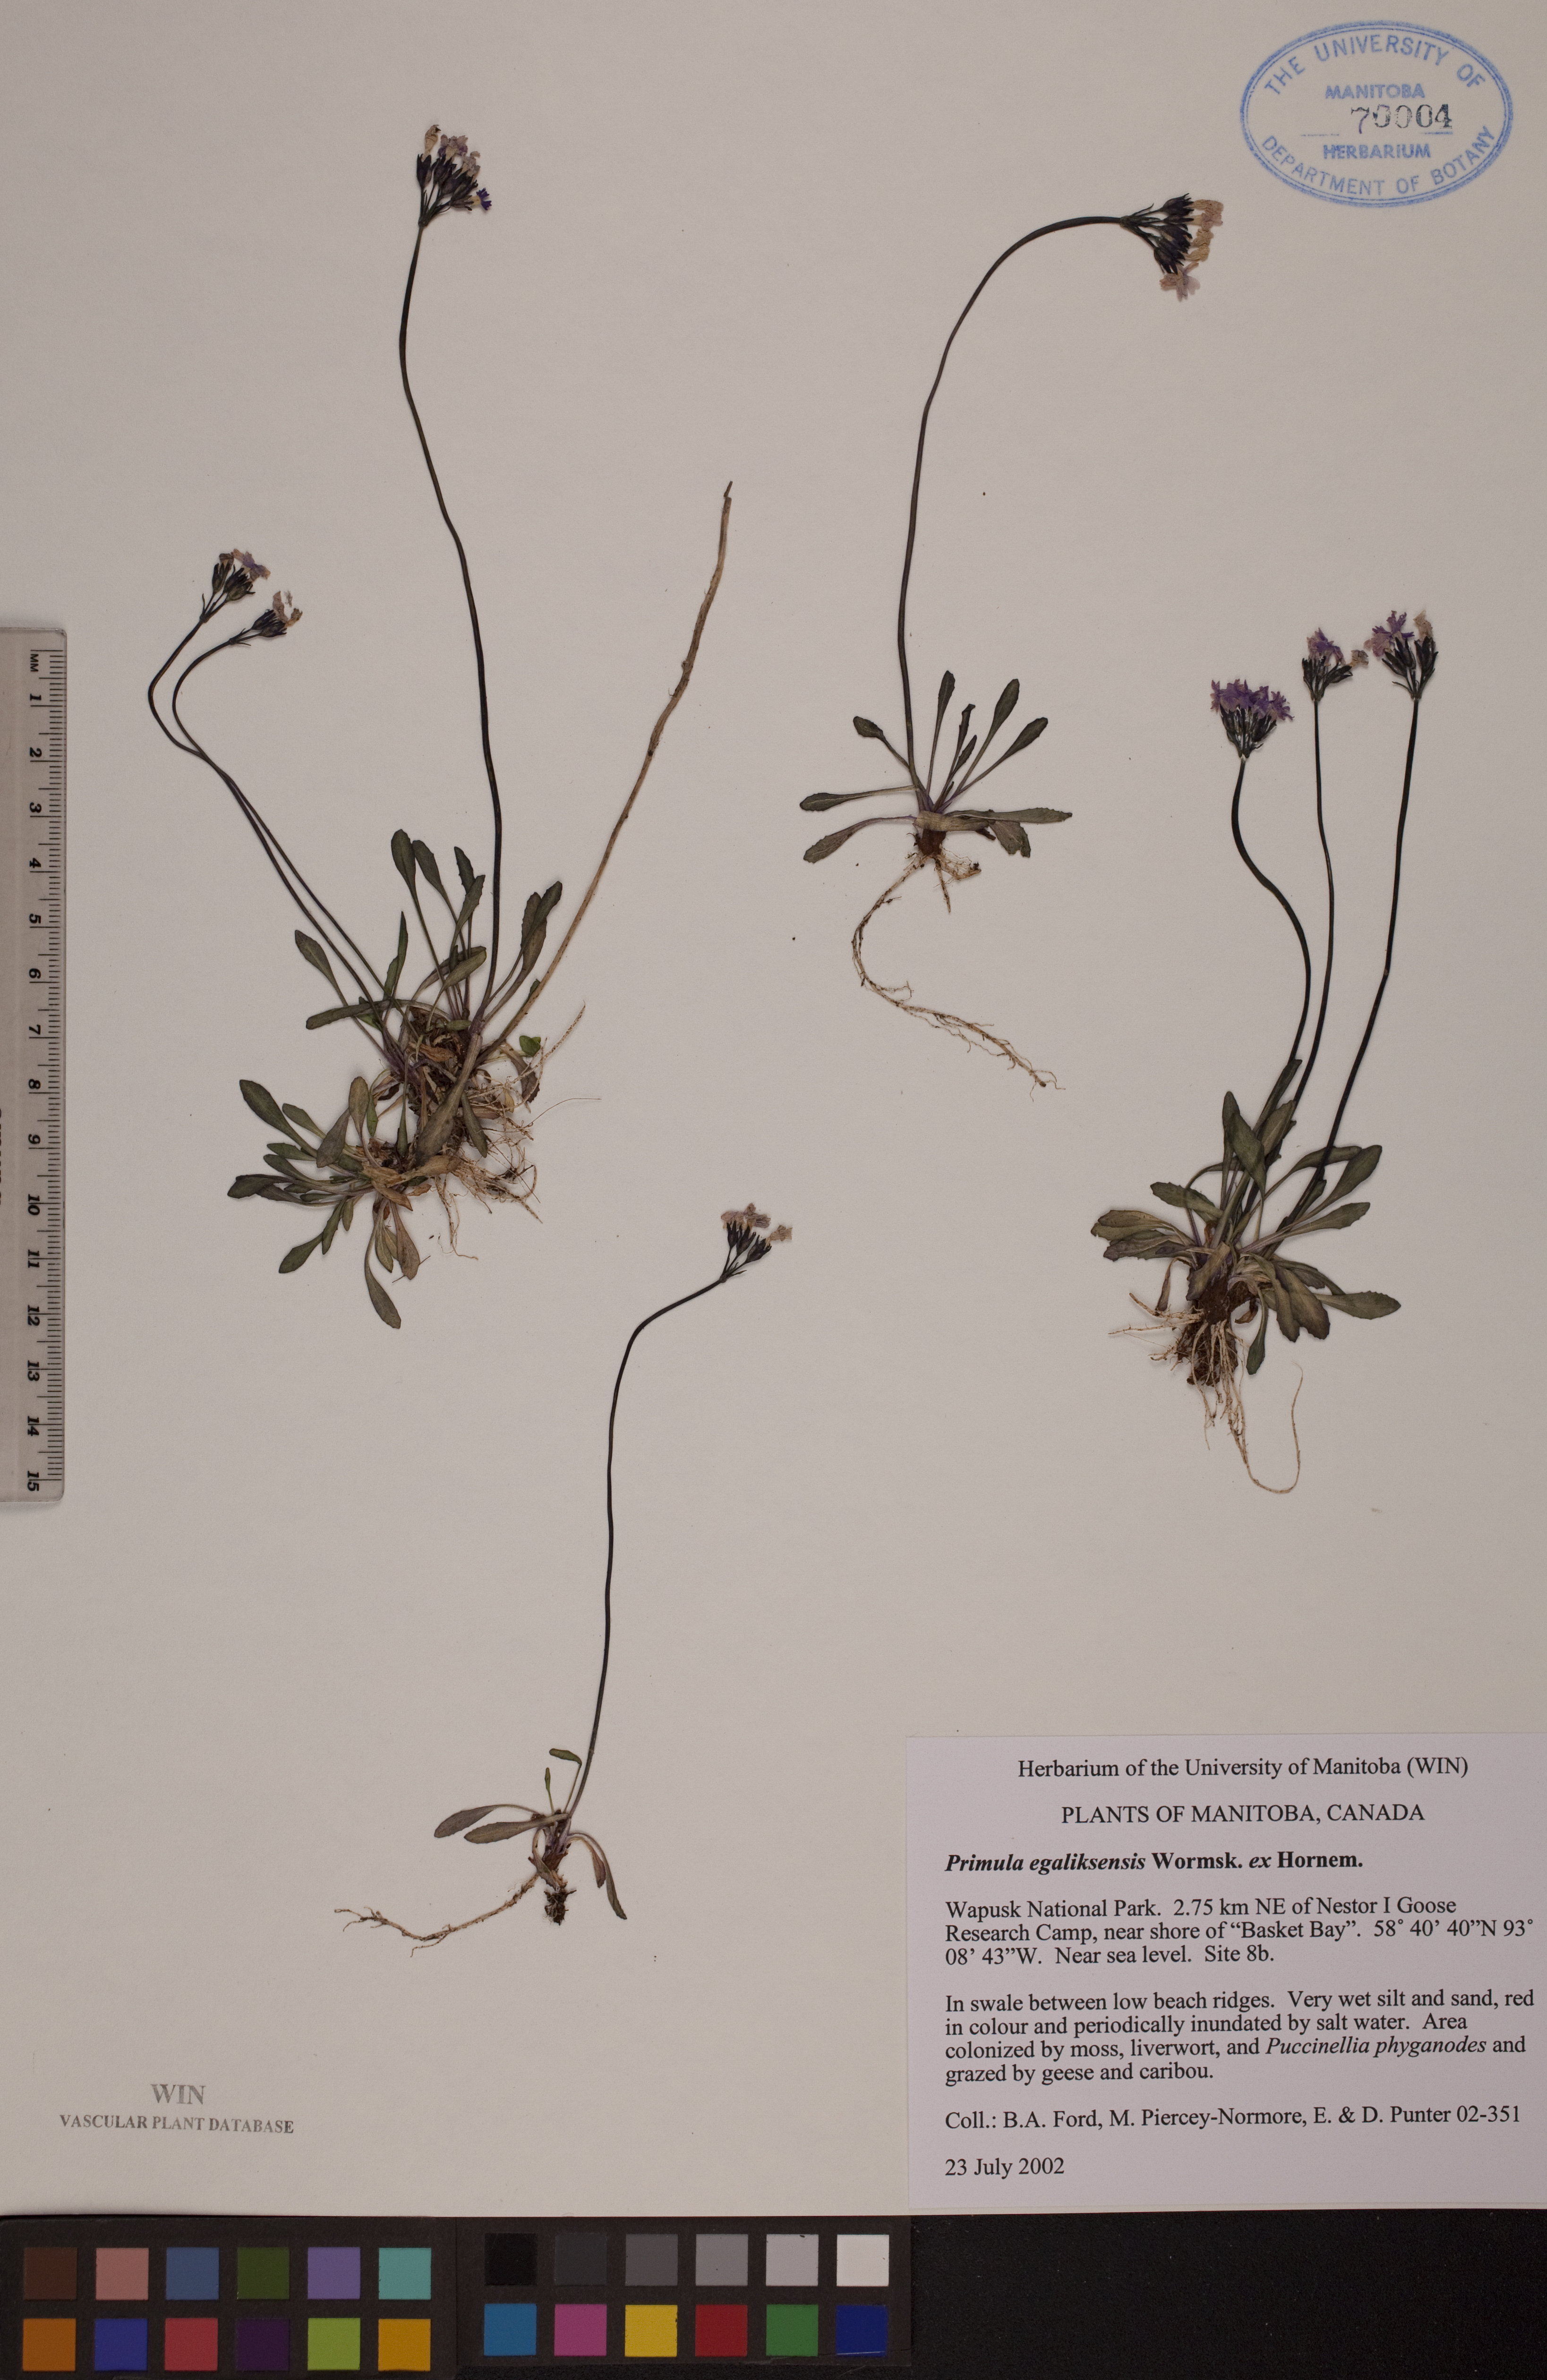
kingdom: Plantae
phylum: Tracheophyta
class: Magnoliopsida
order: Ericales
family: Primulaceae
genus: Primula
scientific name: Primula egaliksensis
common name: Greenland primrose
